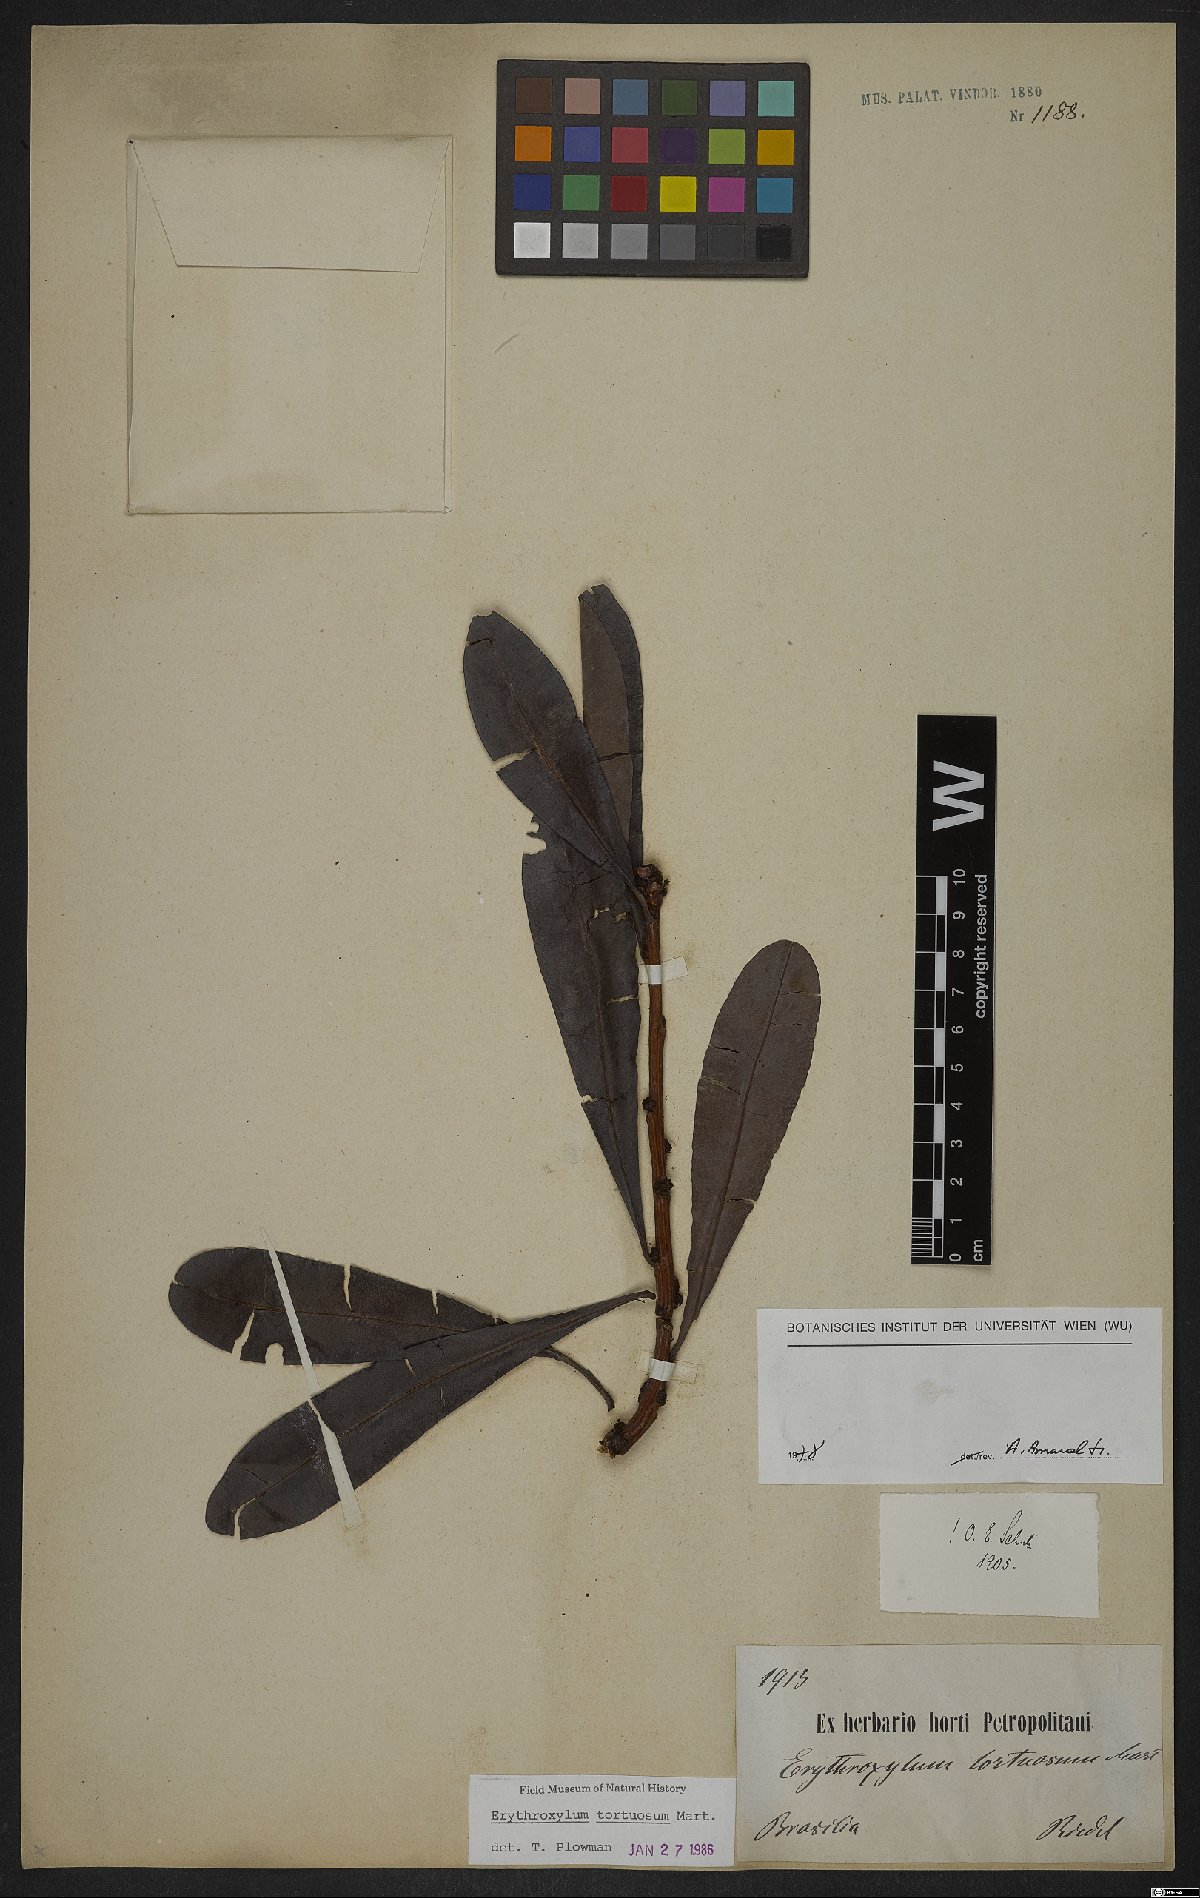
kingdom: Plantae
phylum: Tracheophyta
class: Magnoliopsida
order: Malpighiales
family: Erythroxylaceae
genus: Erythroxylum
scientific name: Erythroxylum tortuosum
